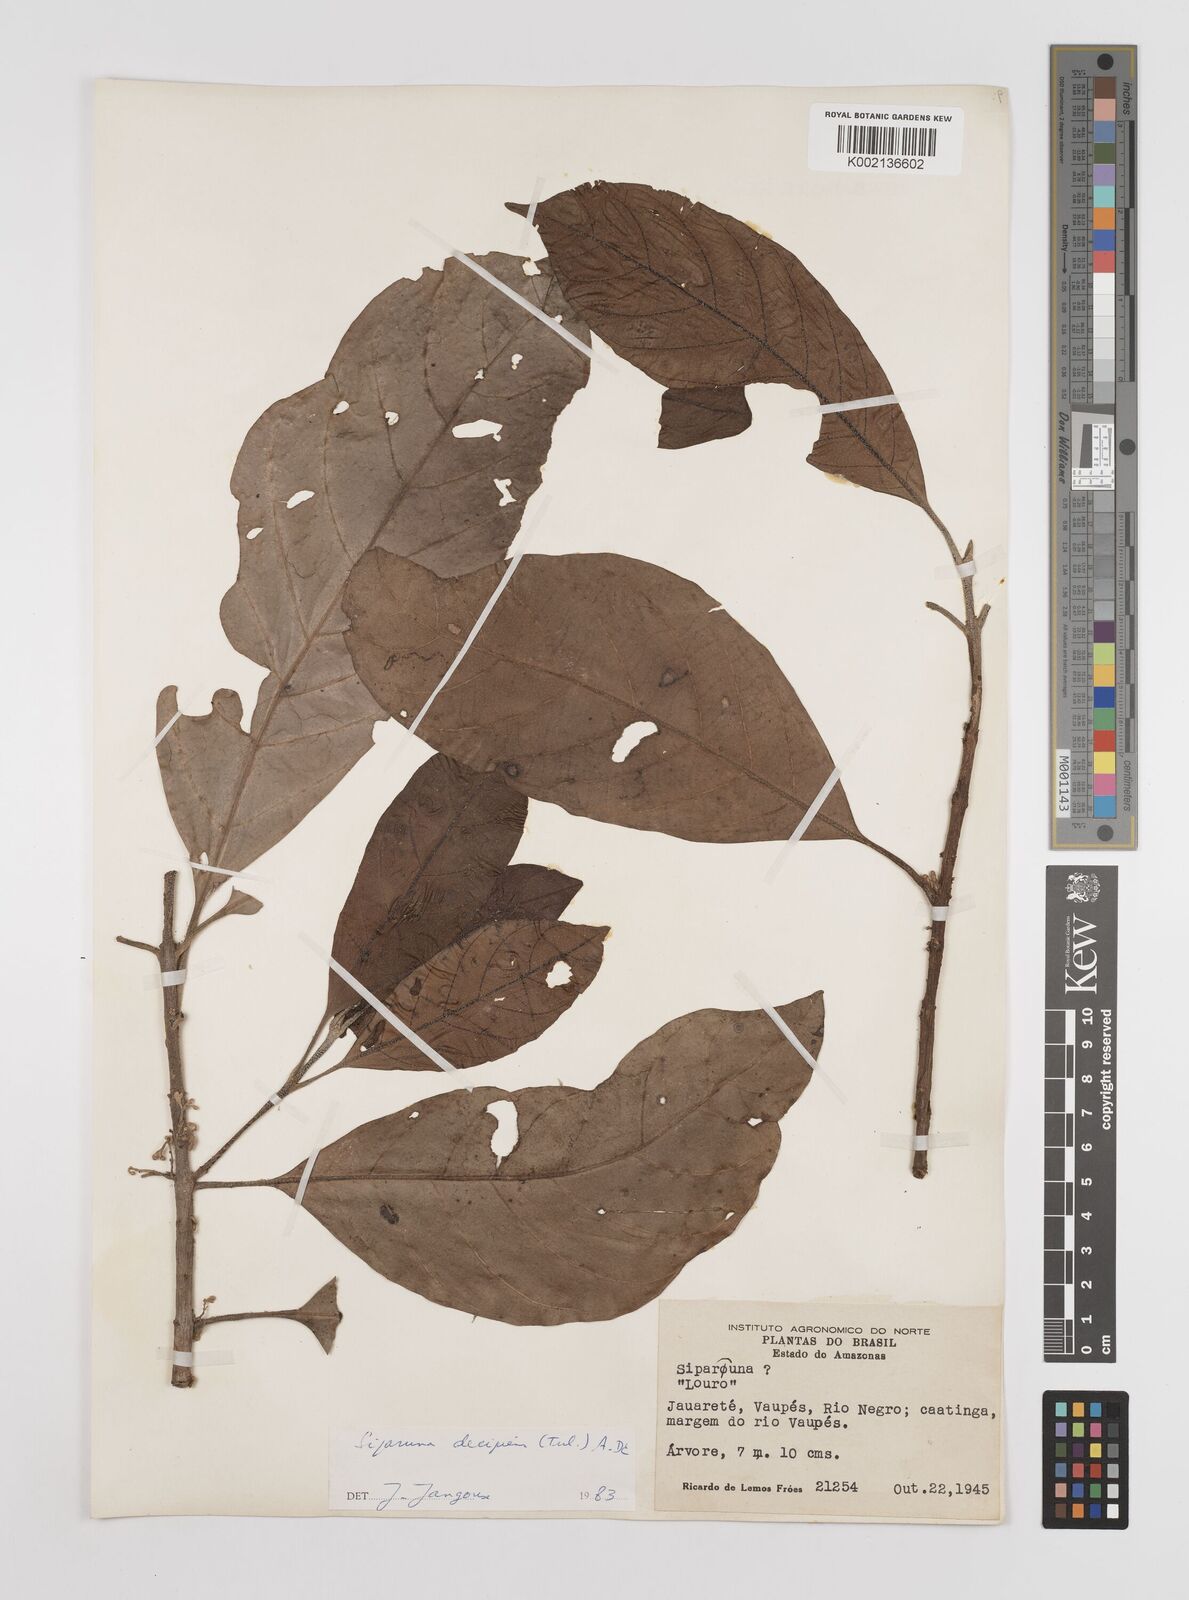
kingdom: Plantae
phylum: Tracheophyta
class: Magnoliopsida
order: Laurales
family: Siparunaceae
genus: Siparuna
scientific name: Siparuna decipiens
